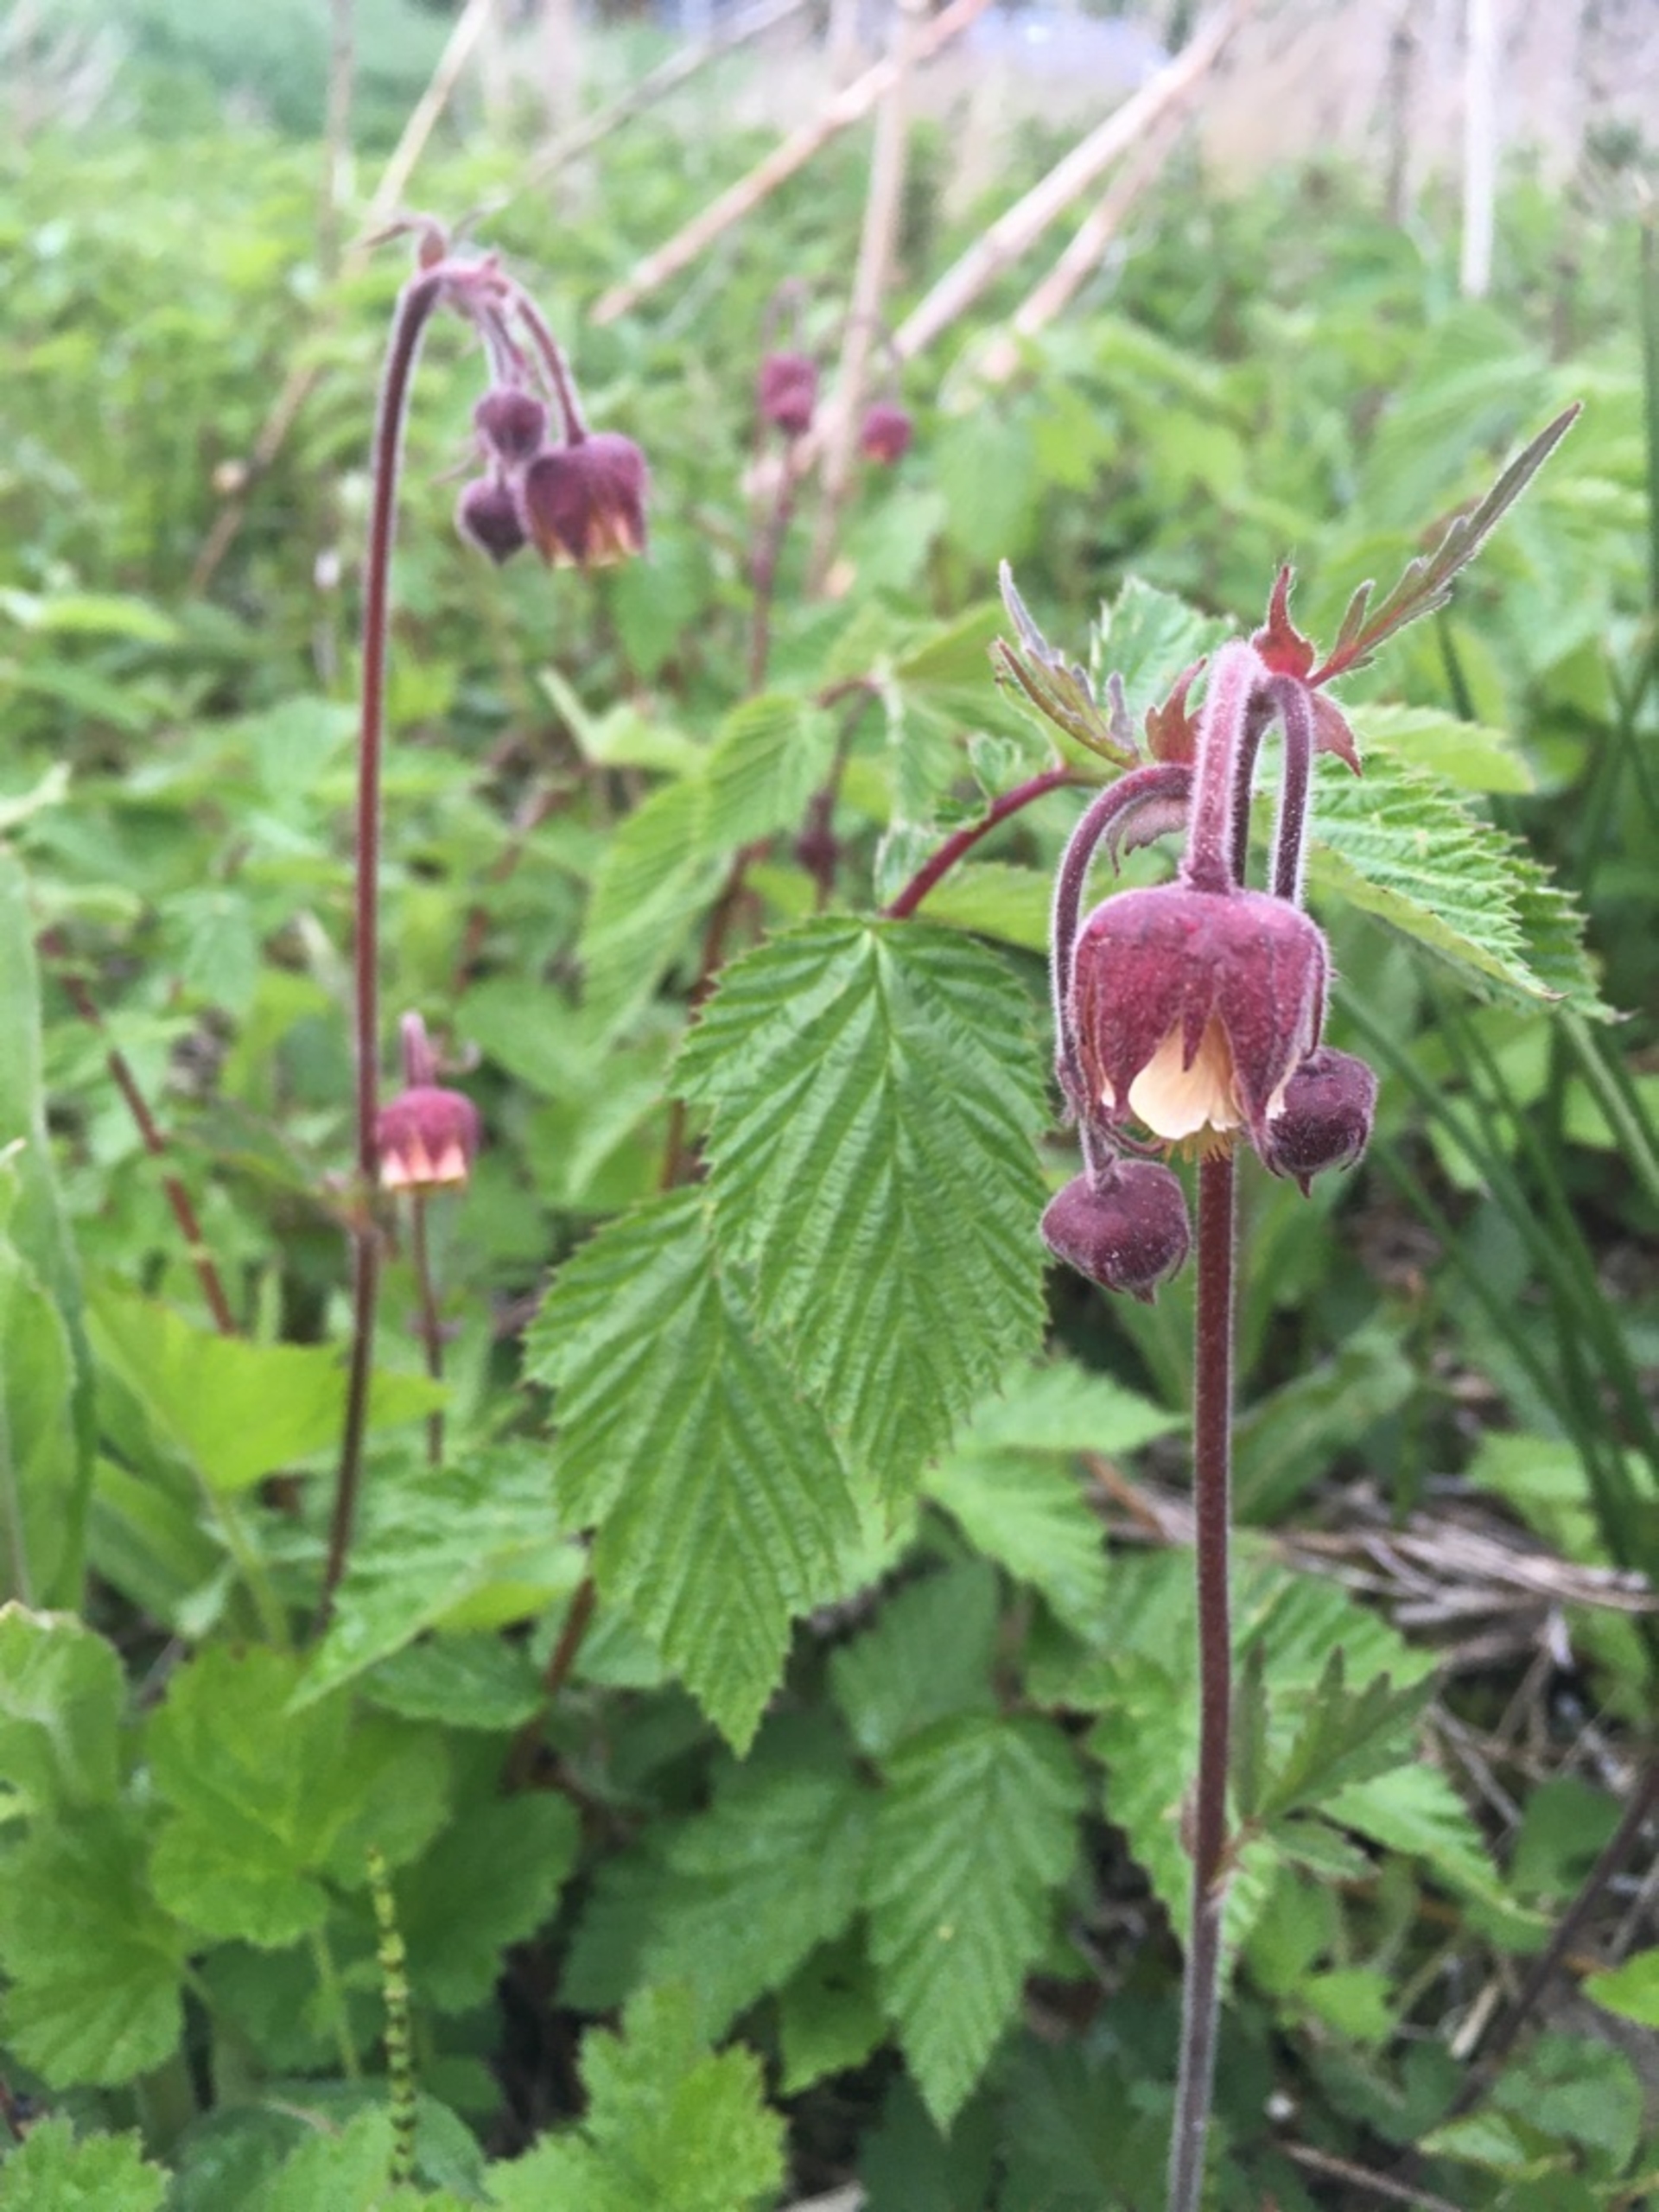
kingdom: Plantae
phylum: Tracheophyta
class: Magnoliopsida
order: Rosales
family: Rosaceae
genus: Geum
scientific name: Geum rivale
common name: Eng-nellikerod
